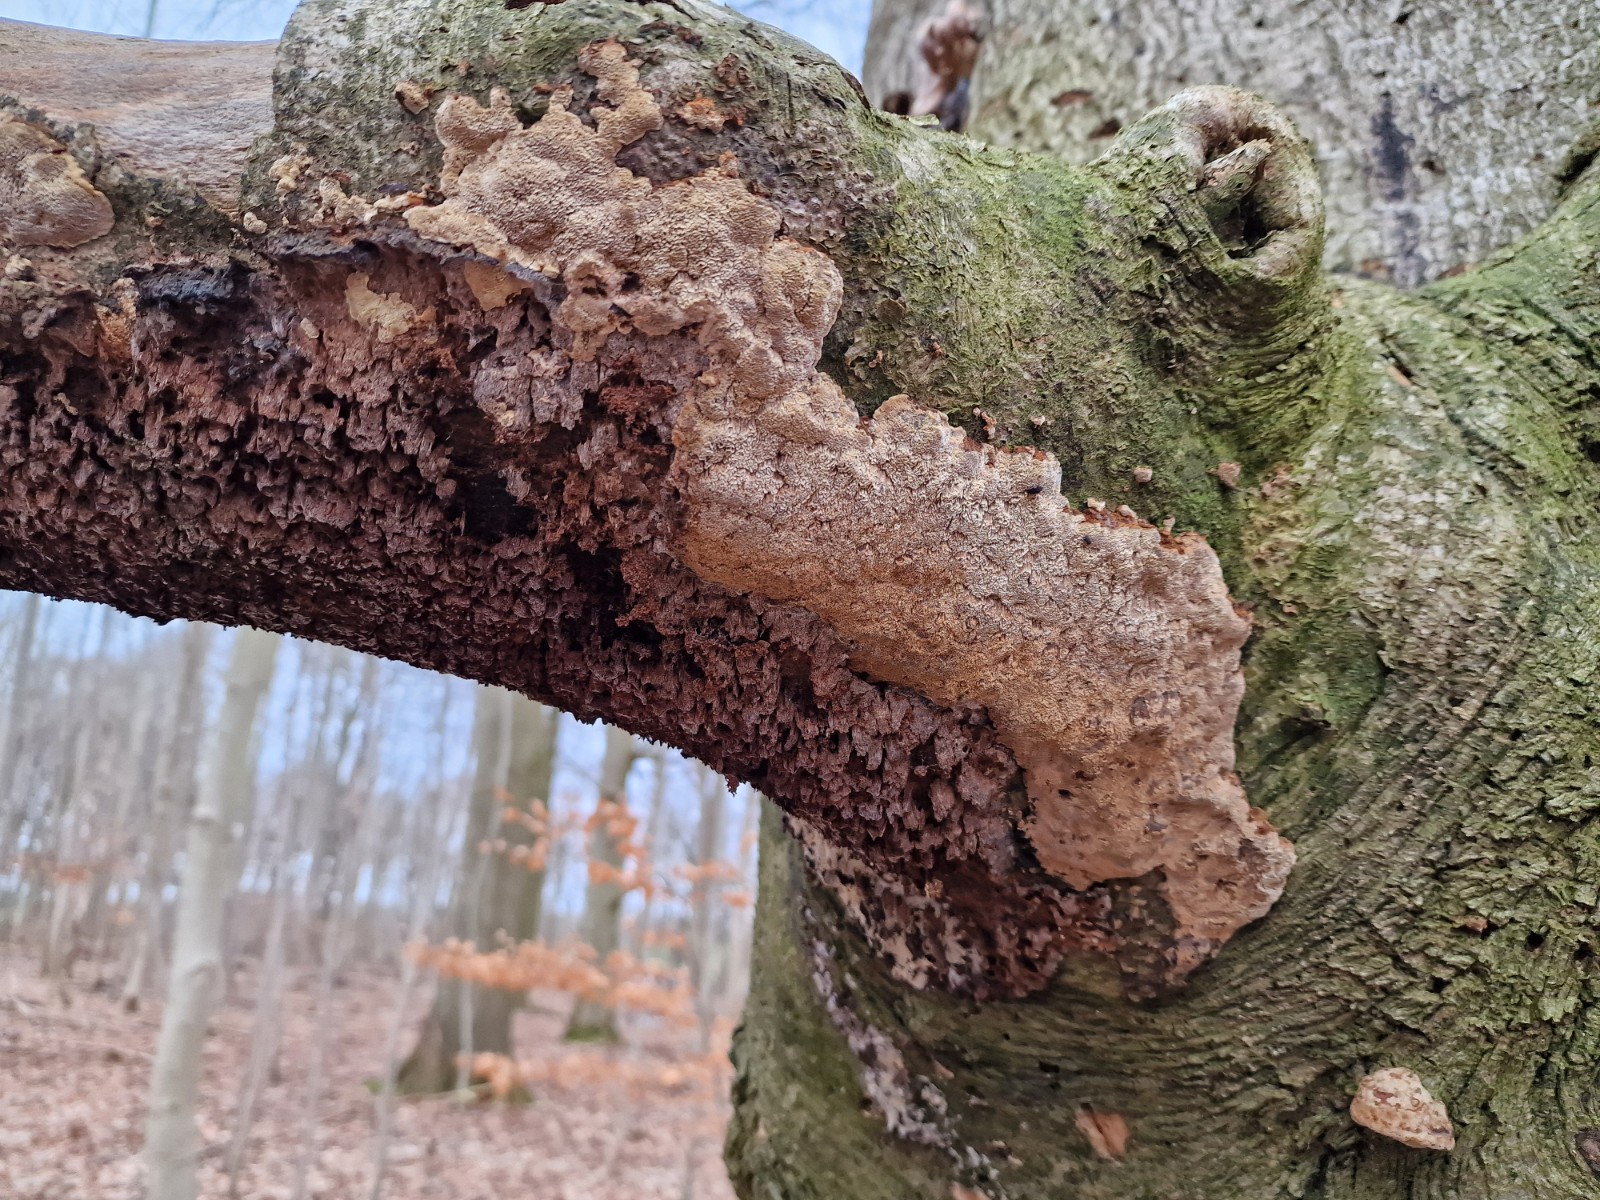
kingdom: Fungi
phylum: Basidiomycota
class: Agaricomycetes
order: Hymenochaetales
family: Hymenochaetaceae
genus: Mensularia
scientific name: Mensularia nodulosa
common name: bøge-spejlporesvamp
